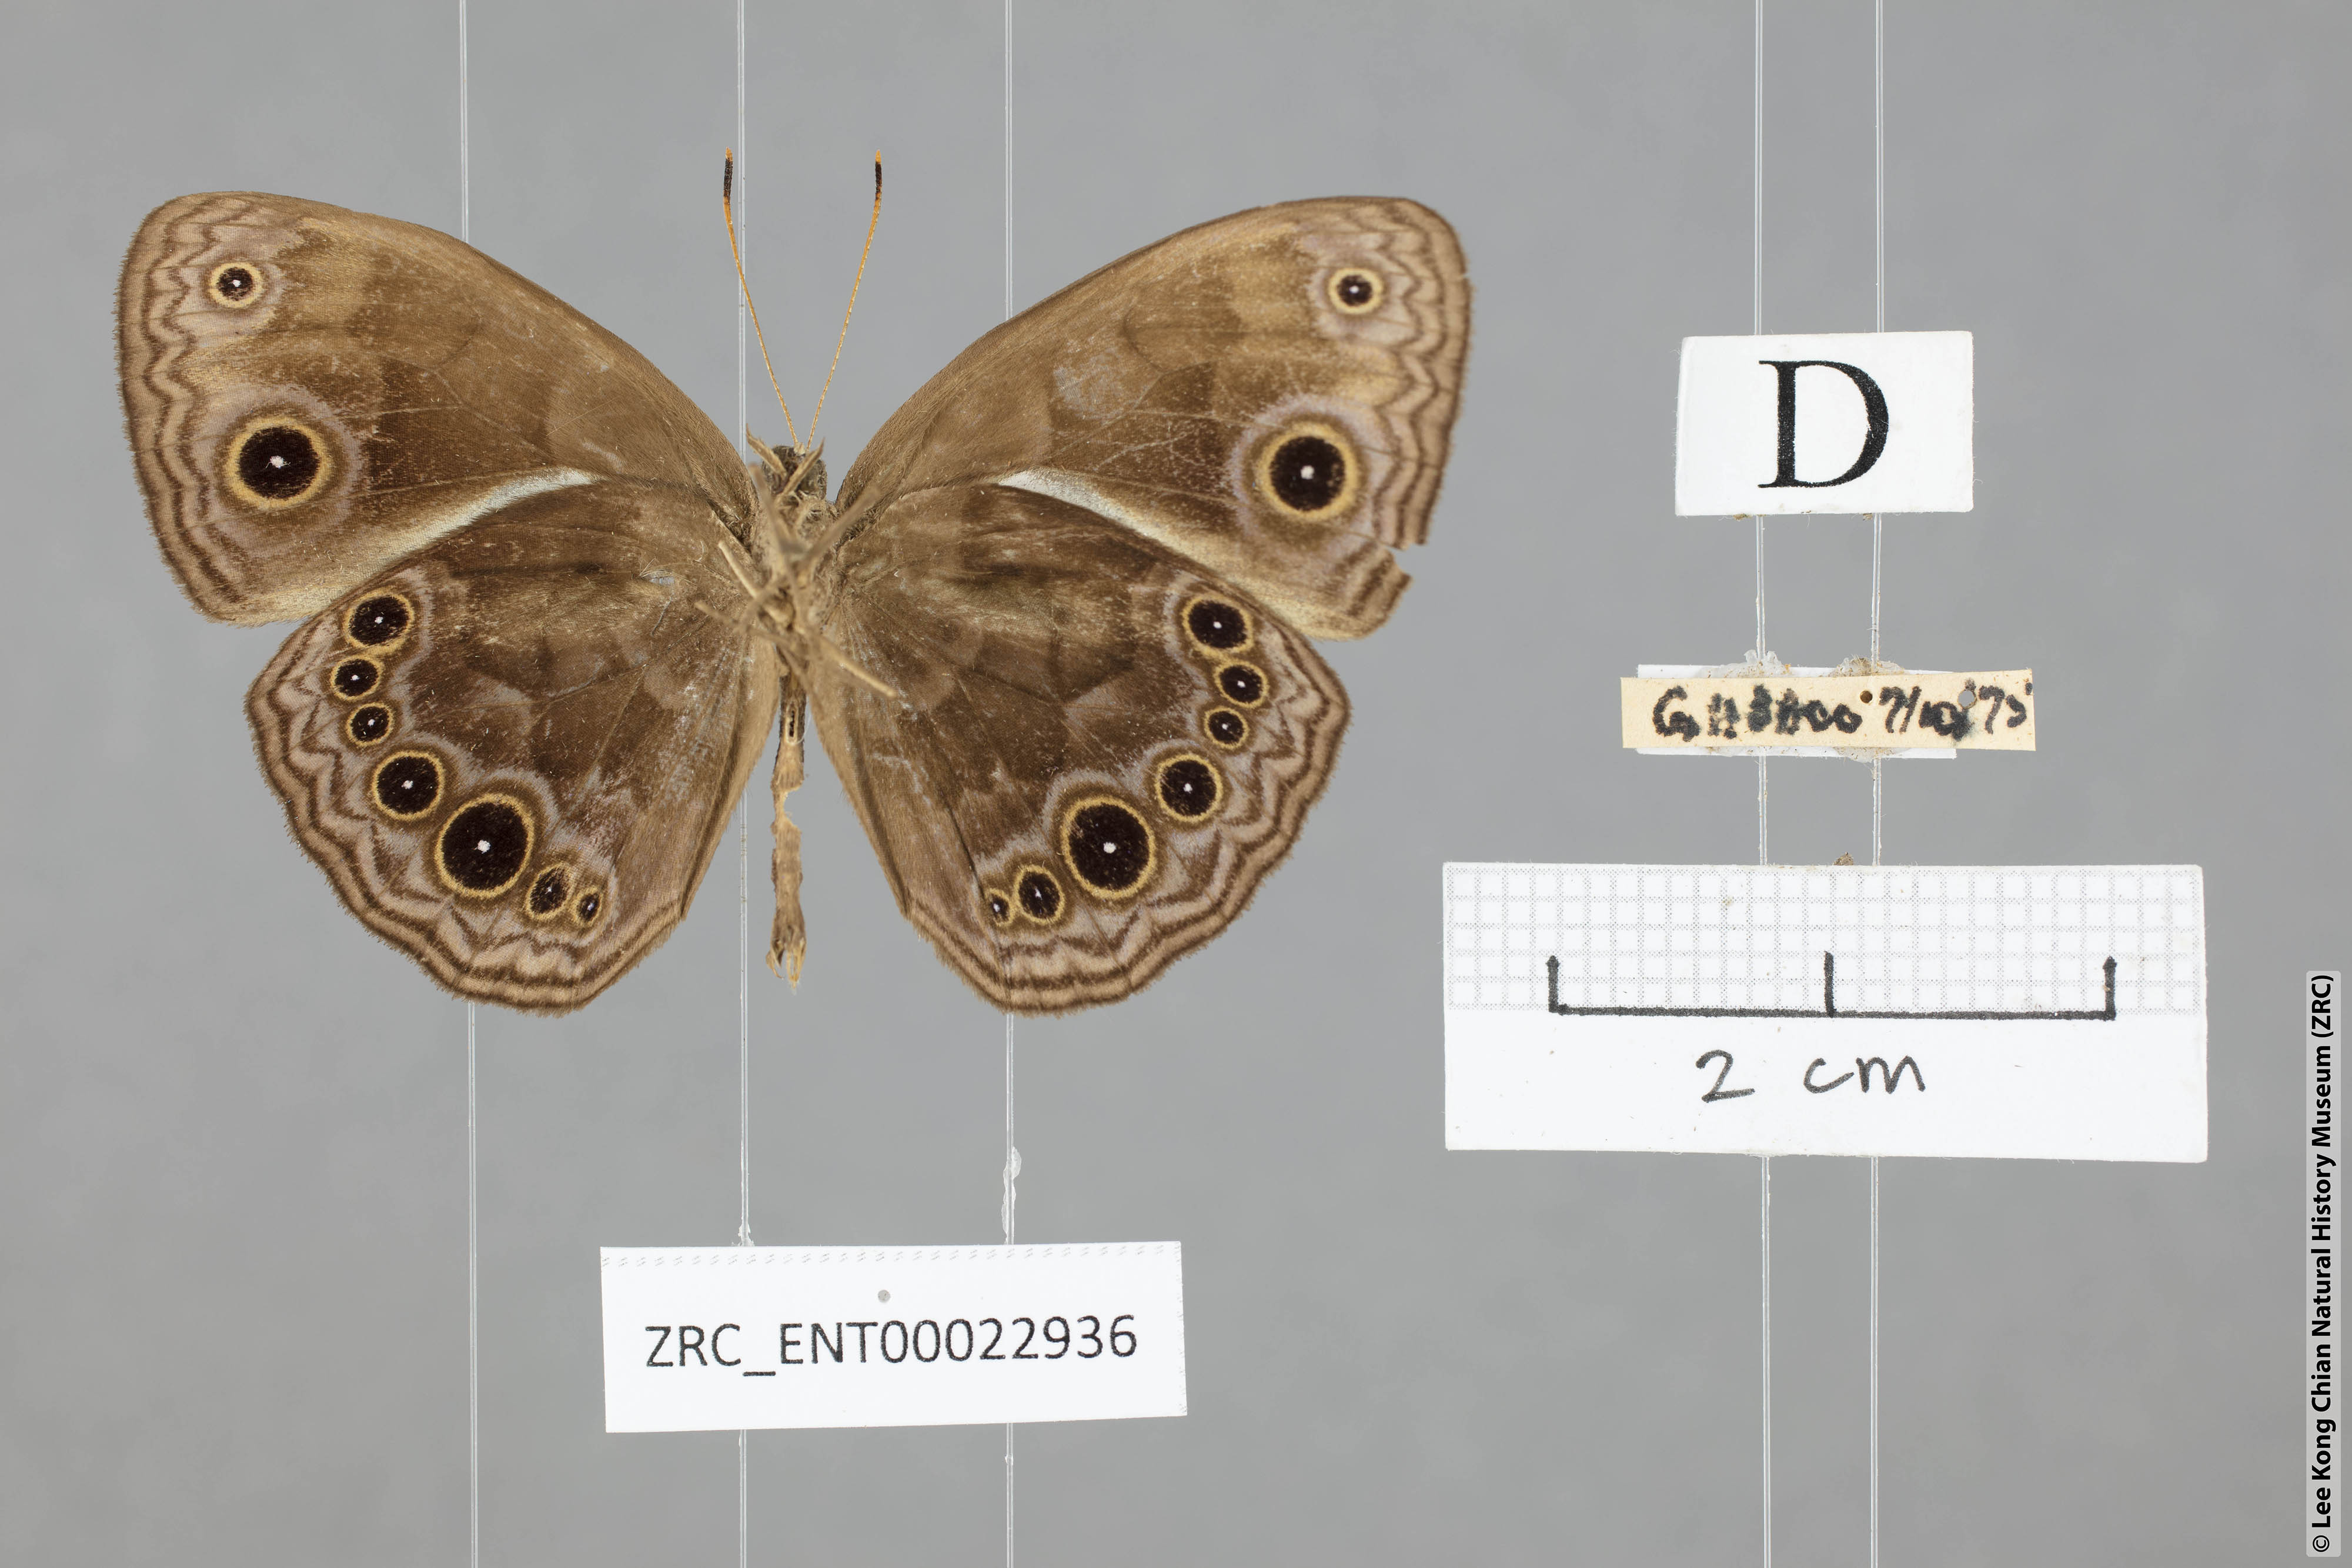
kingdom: Animalia
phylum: Arthropoda
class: Insecta
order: Lepidoptera
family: Nymphalidae
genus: Mycalesis
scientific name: Mycalesis maianeas
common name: Bandless bushbrown
